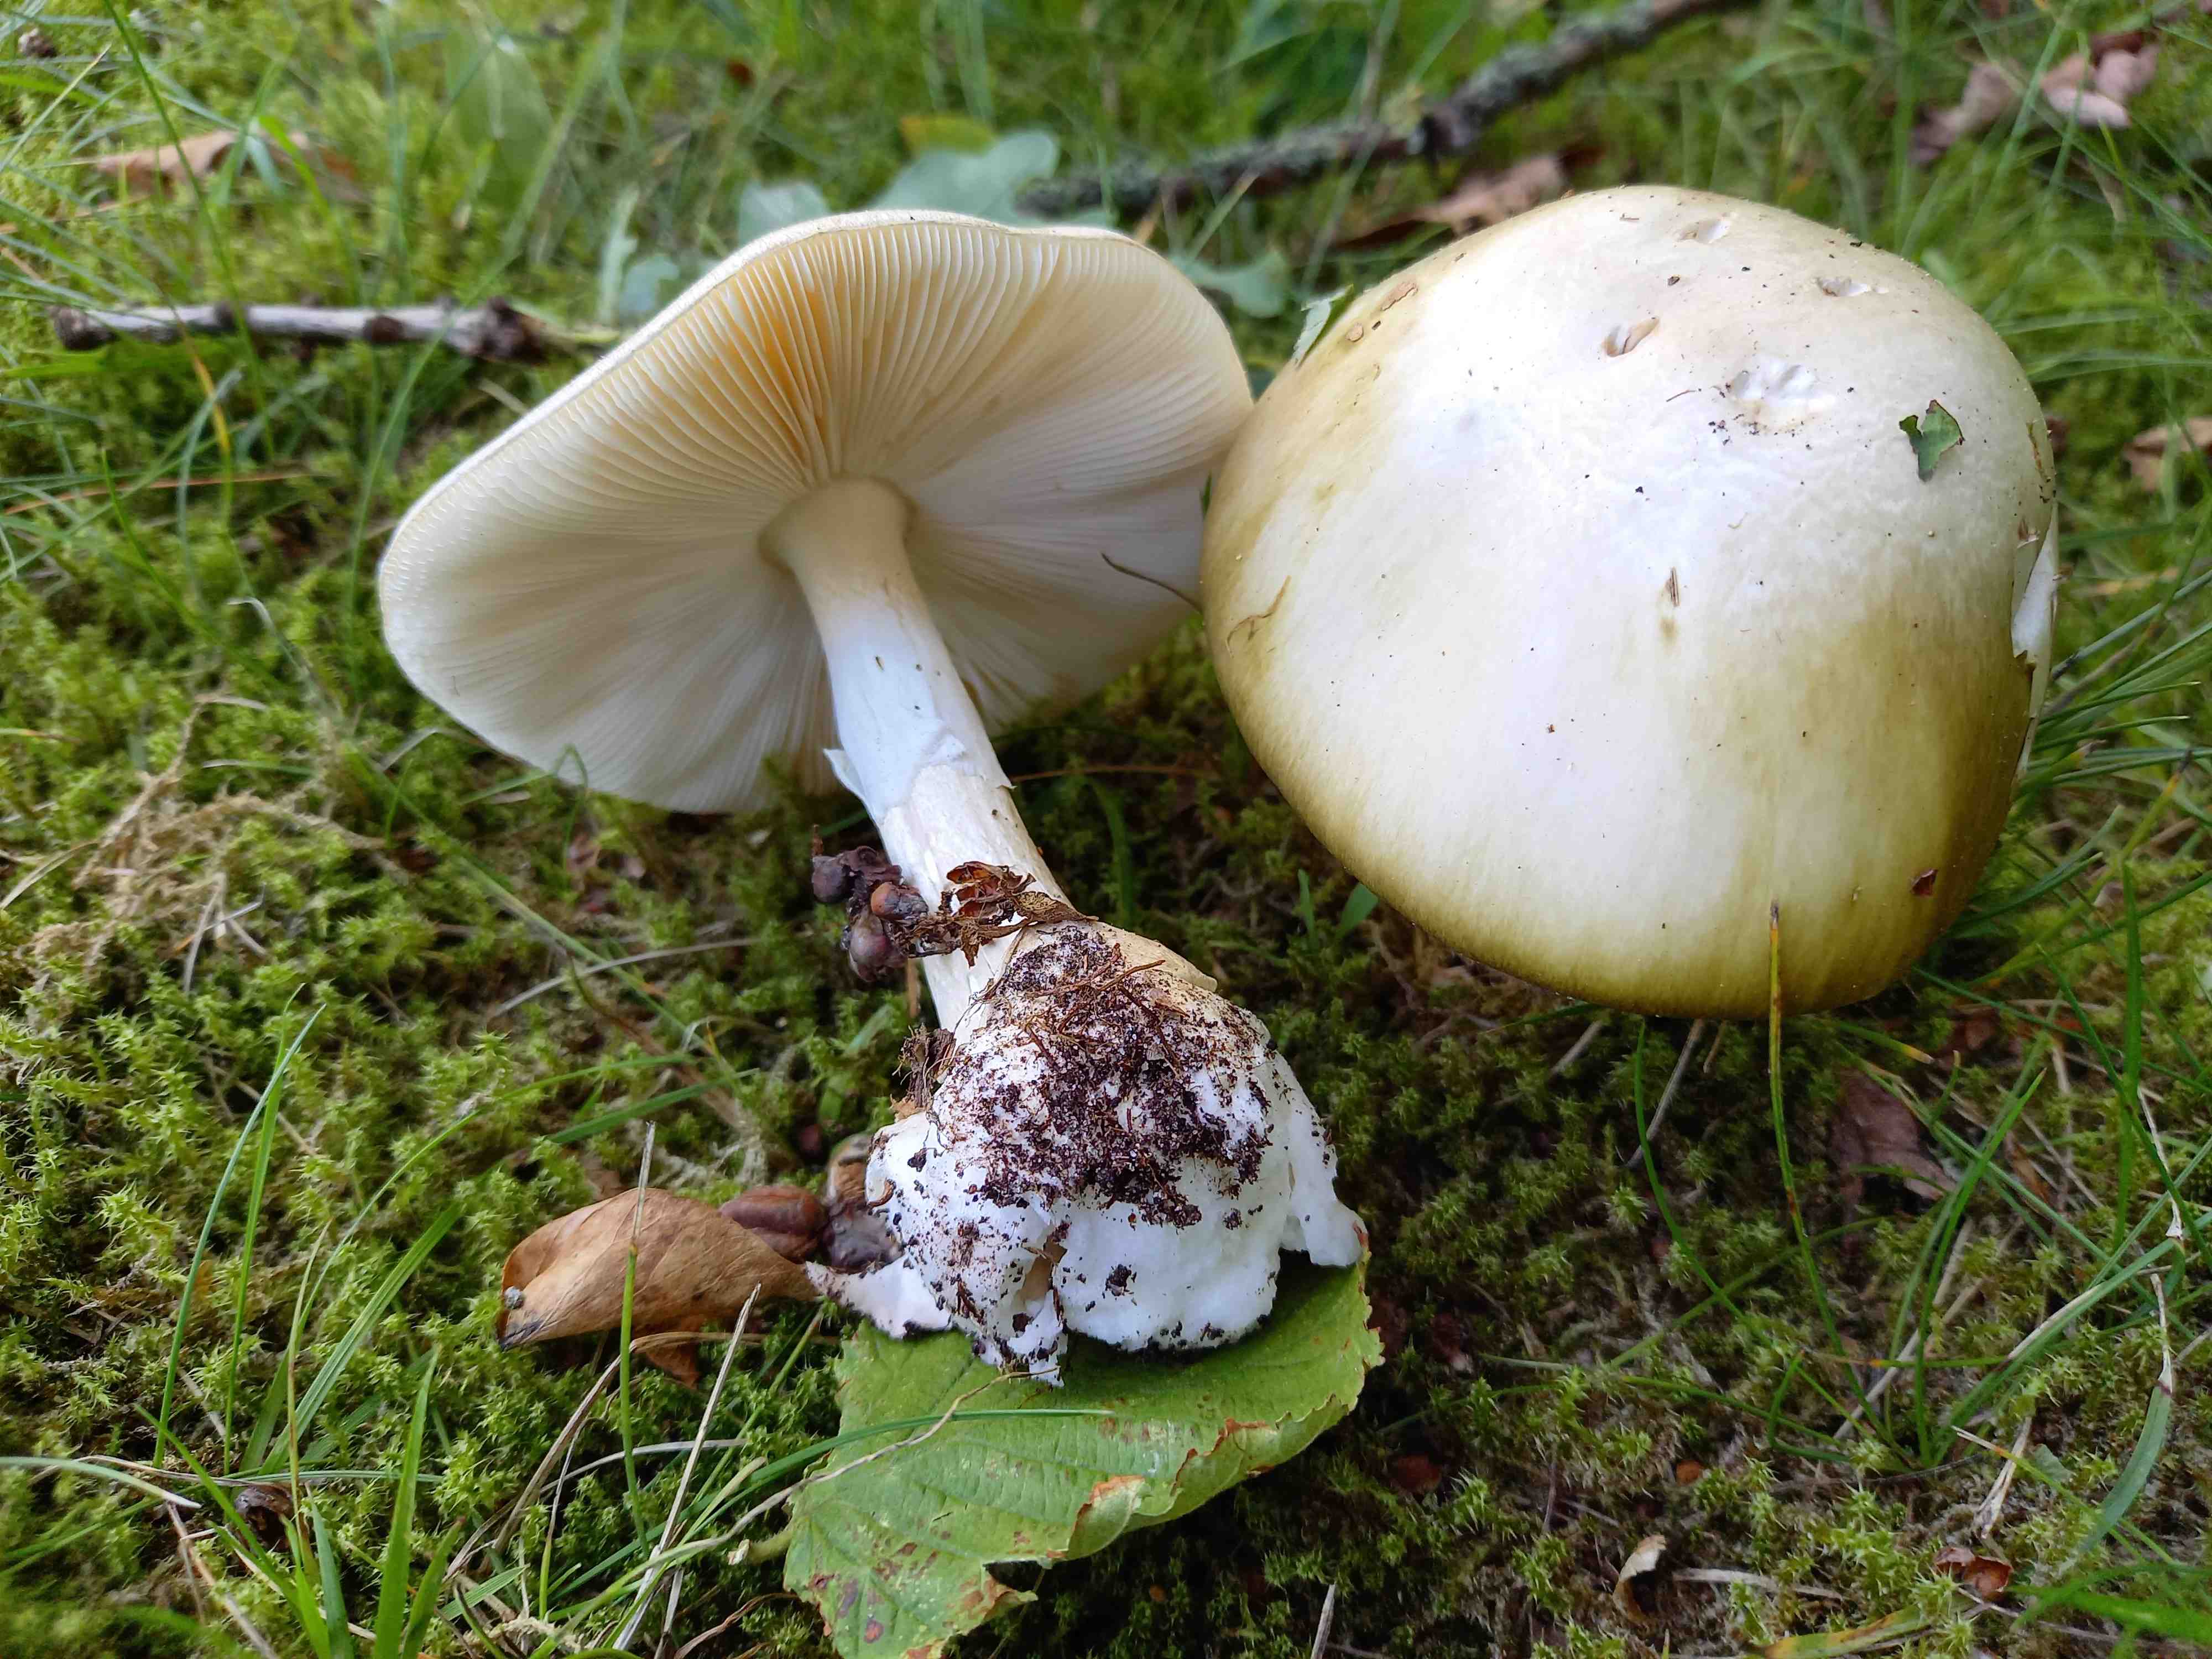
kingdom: Fungi
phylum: Basidiomycota
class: Agaricomycetes
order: Agaricales
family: Amanitaceae
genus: Amanita
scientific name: Amanita phalloides
